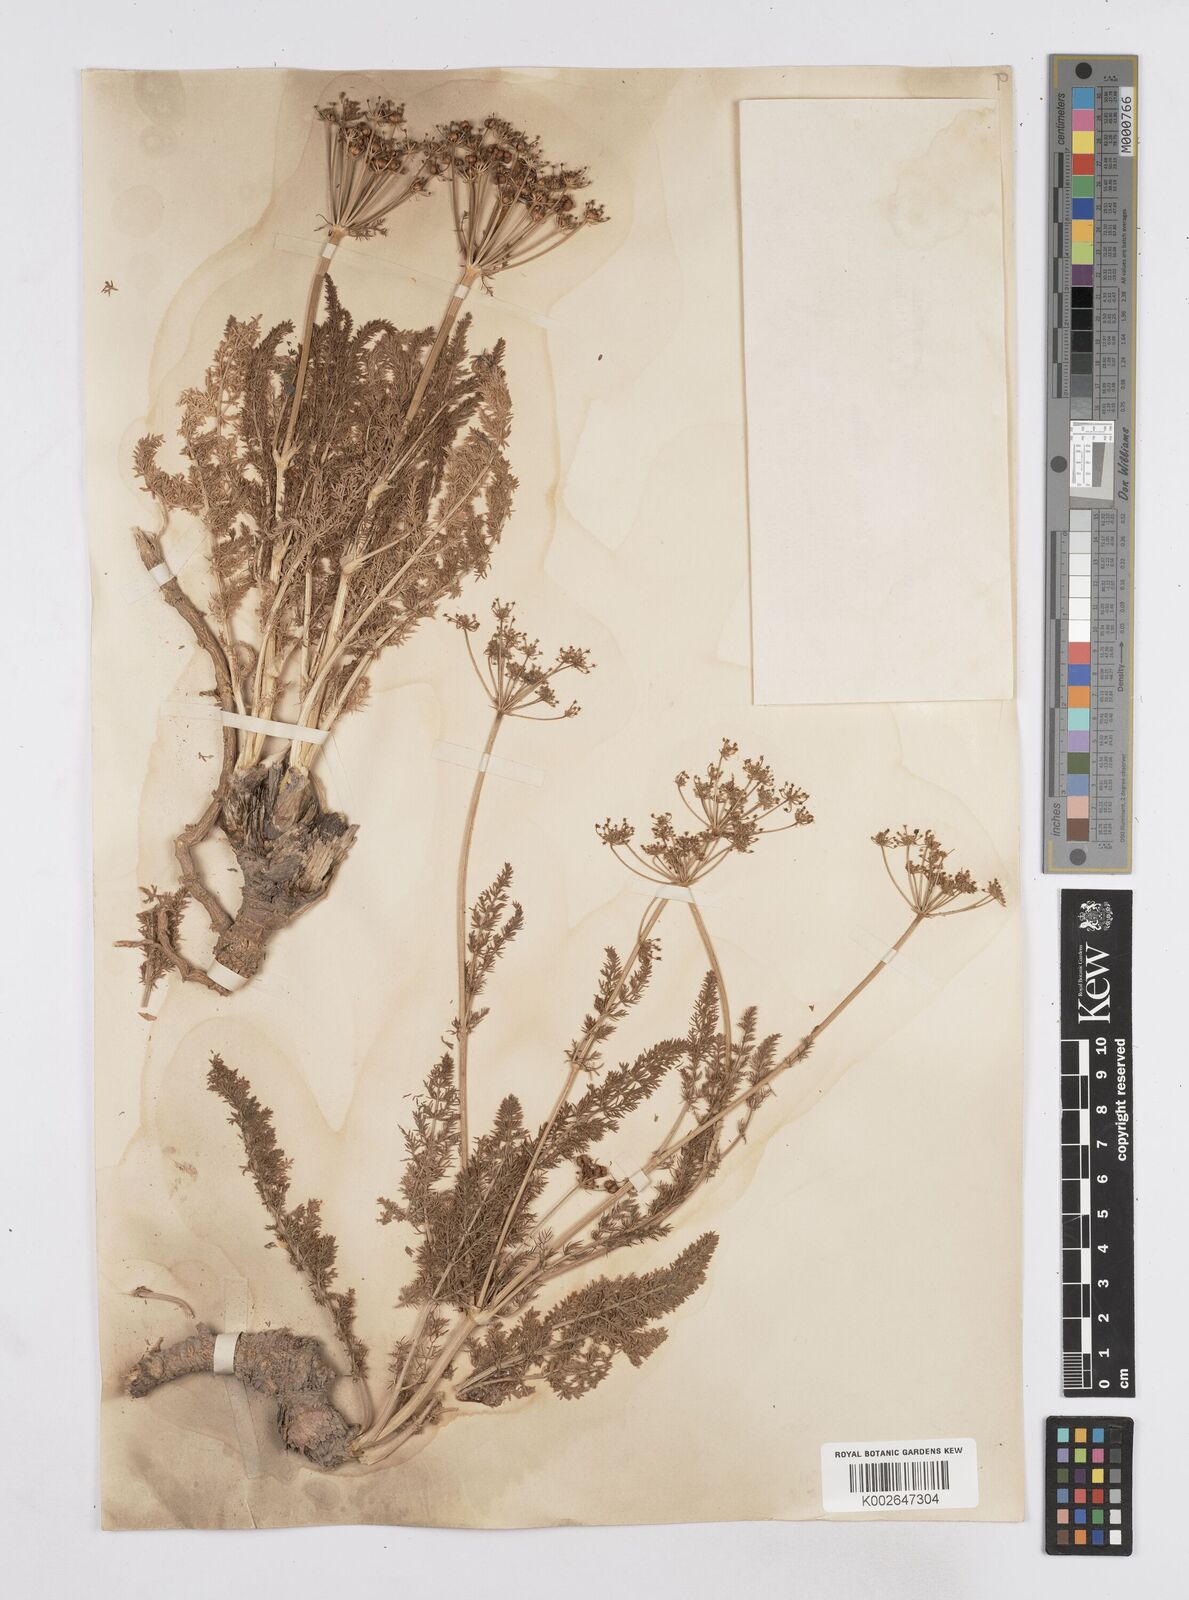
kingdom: Plantae
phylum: Tracheophyta
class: Magnoliopsida
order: Apiales
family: Apiaceae
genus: Schrenkia
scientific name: Schrenkia golickeana
